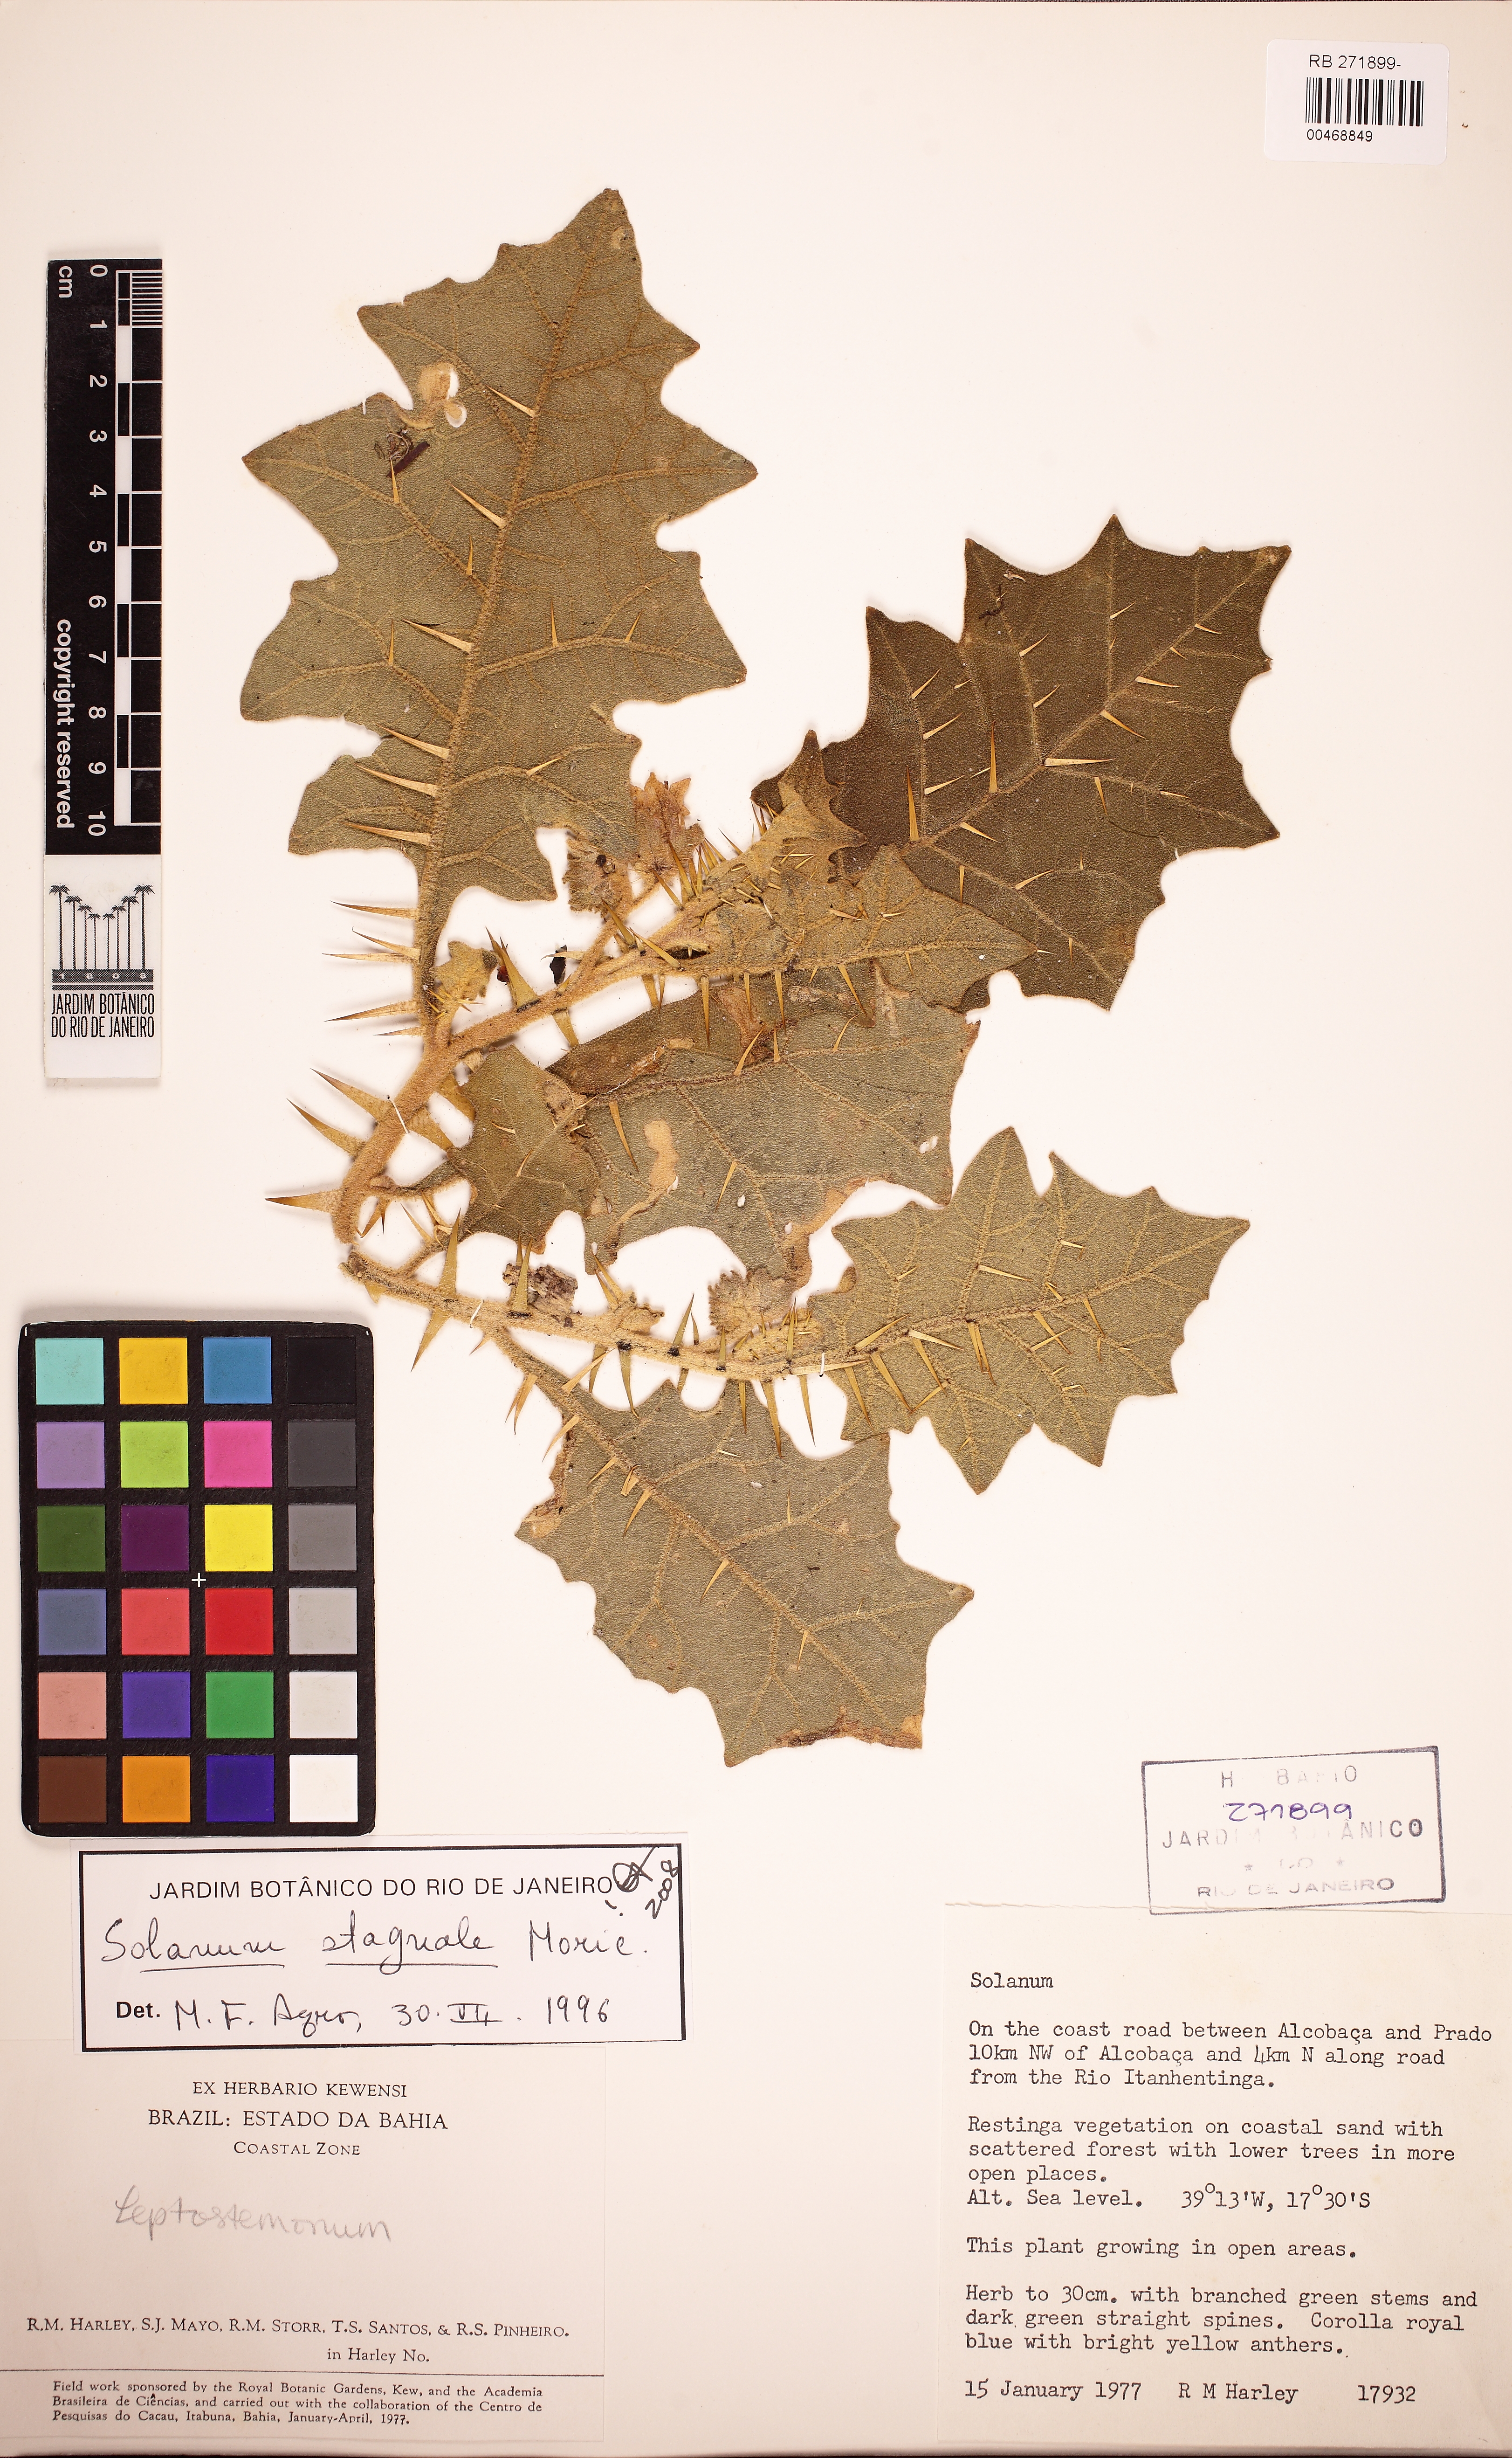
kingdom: Plantae
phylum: Tracheophyta
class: Magnoliopsida
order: Solanales
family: Solanaceae
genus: Solanum
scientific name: Solanum stagnale
